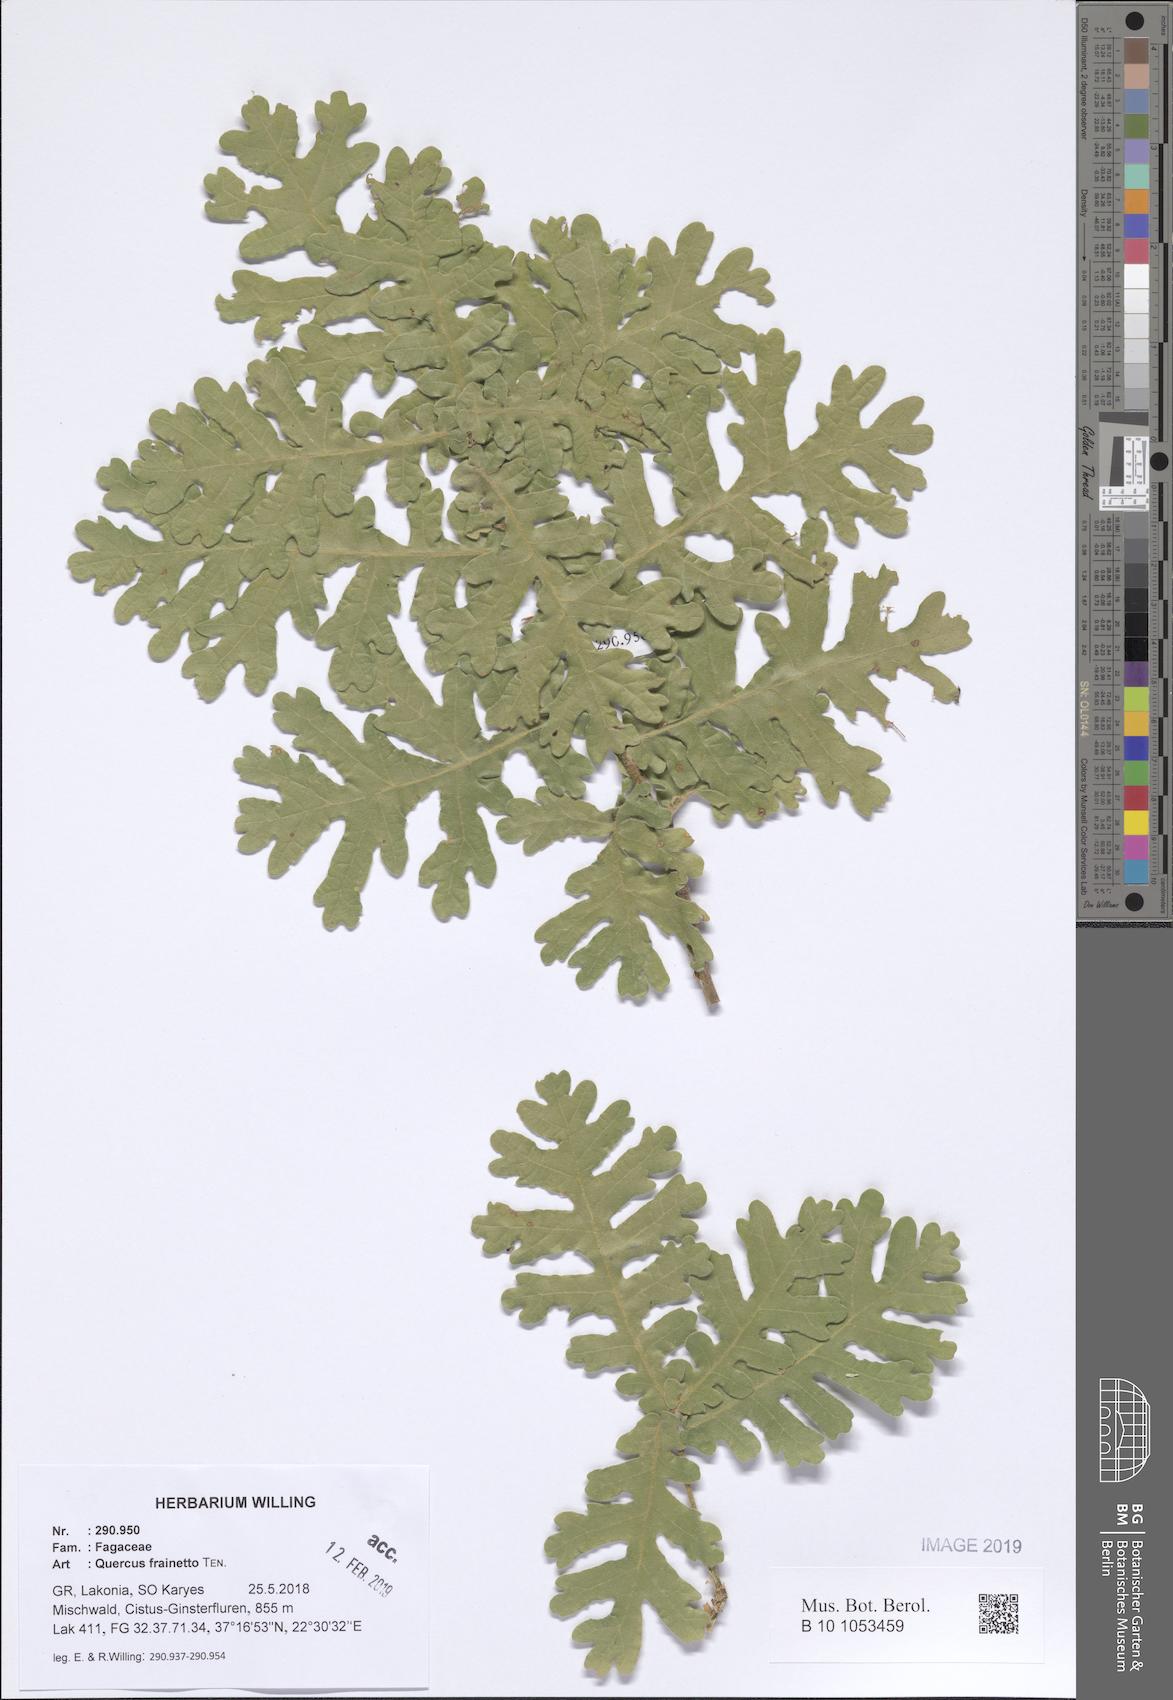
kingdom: Plantae
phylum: Tracheophyta
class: Magnoliopsida
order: Fagales
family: Fagaceae
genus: Quercus
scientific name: Quercus conferta
